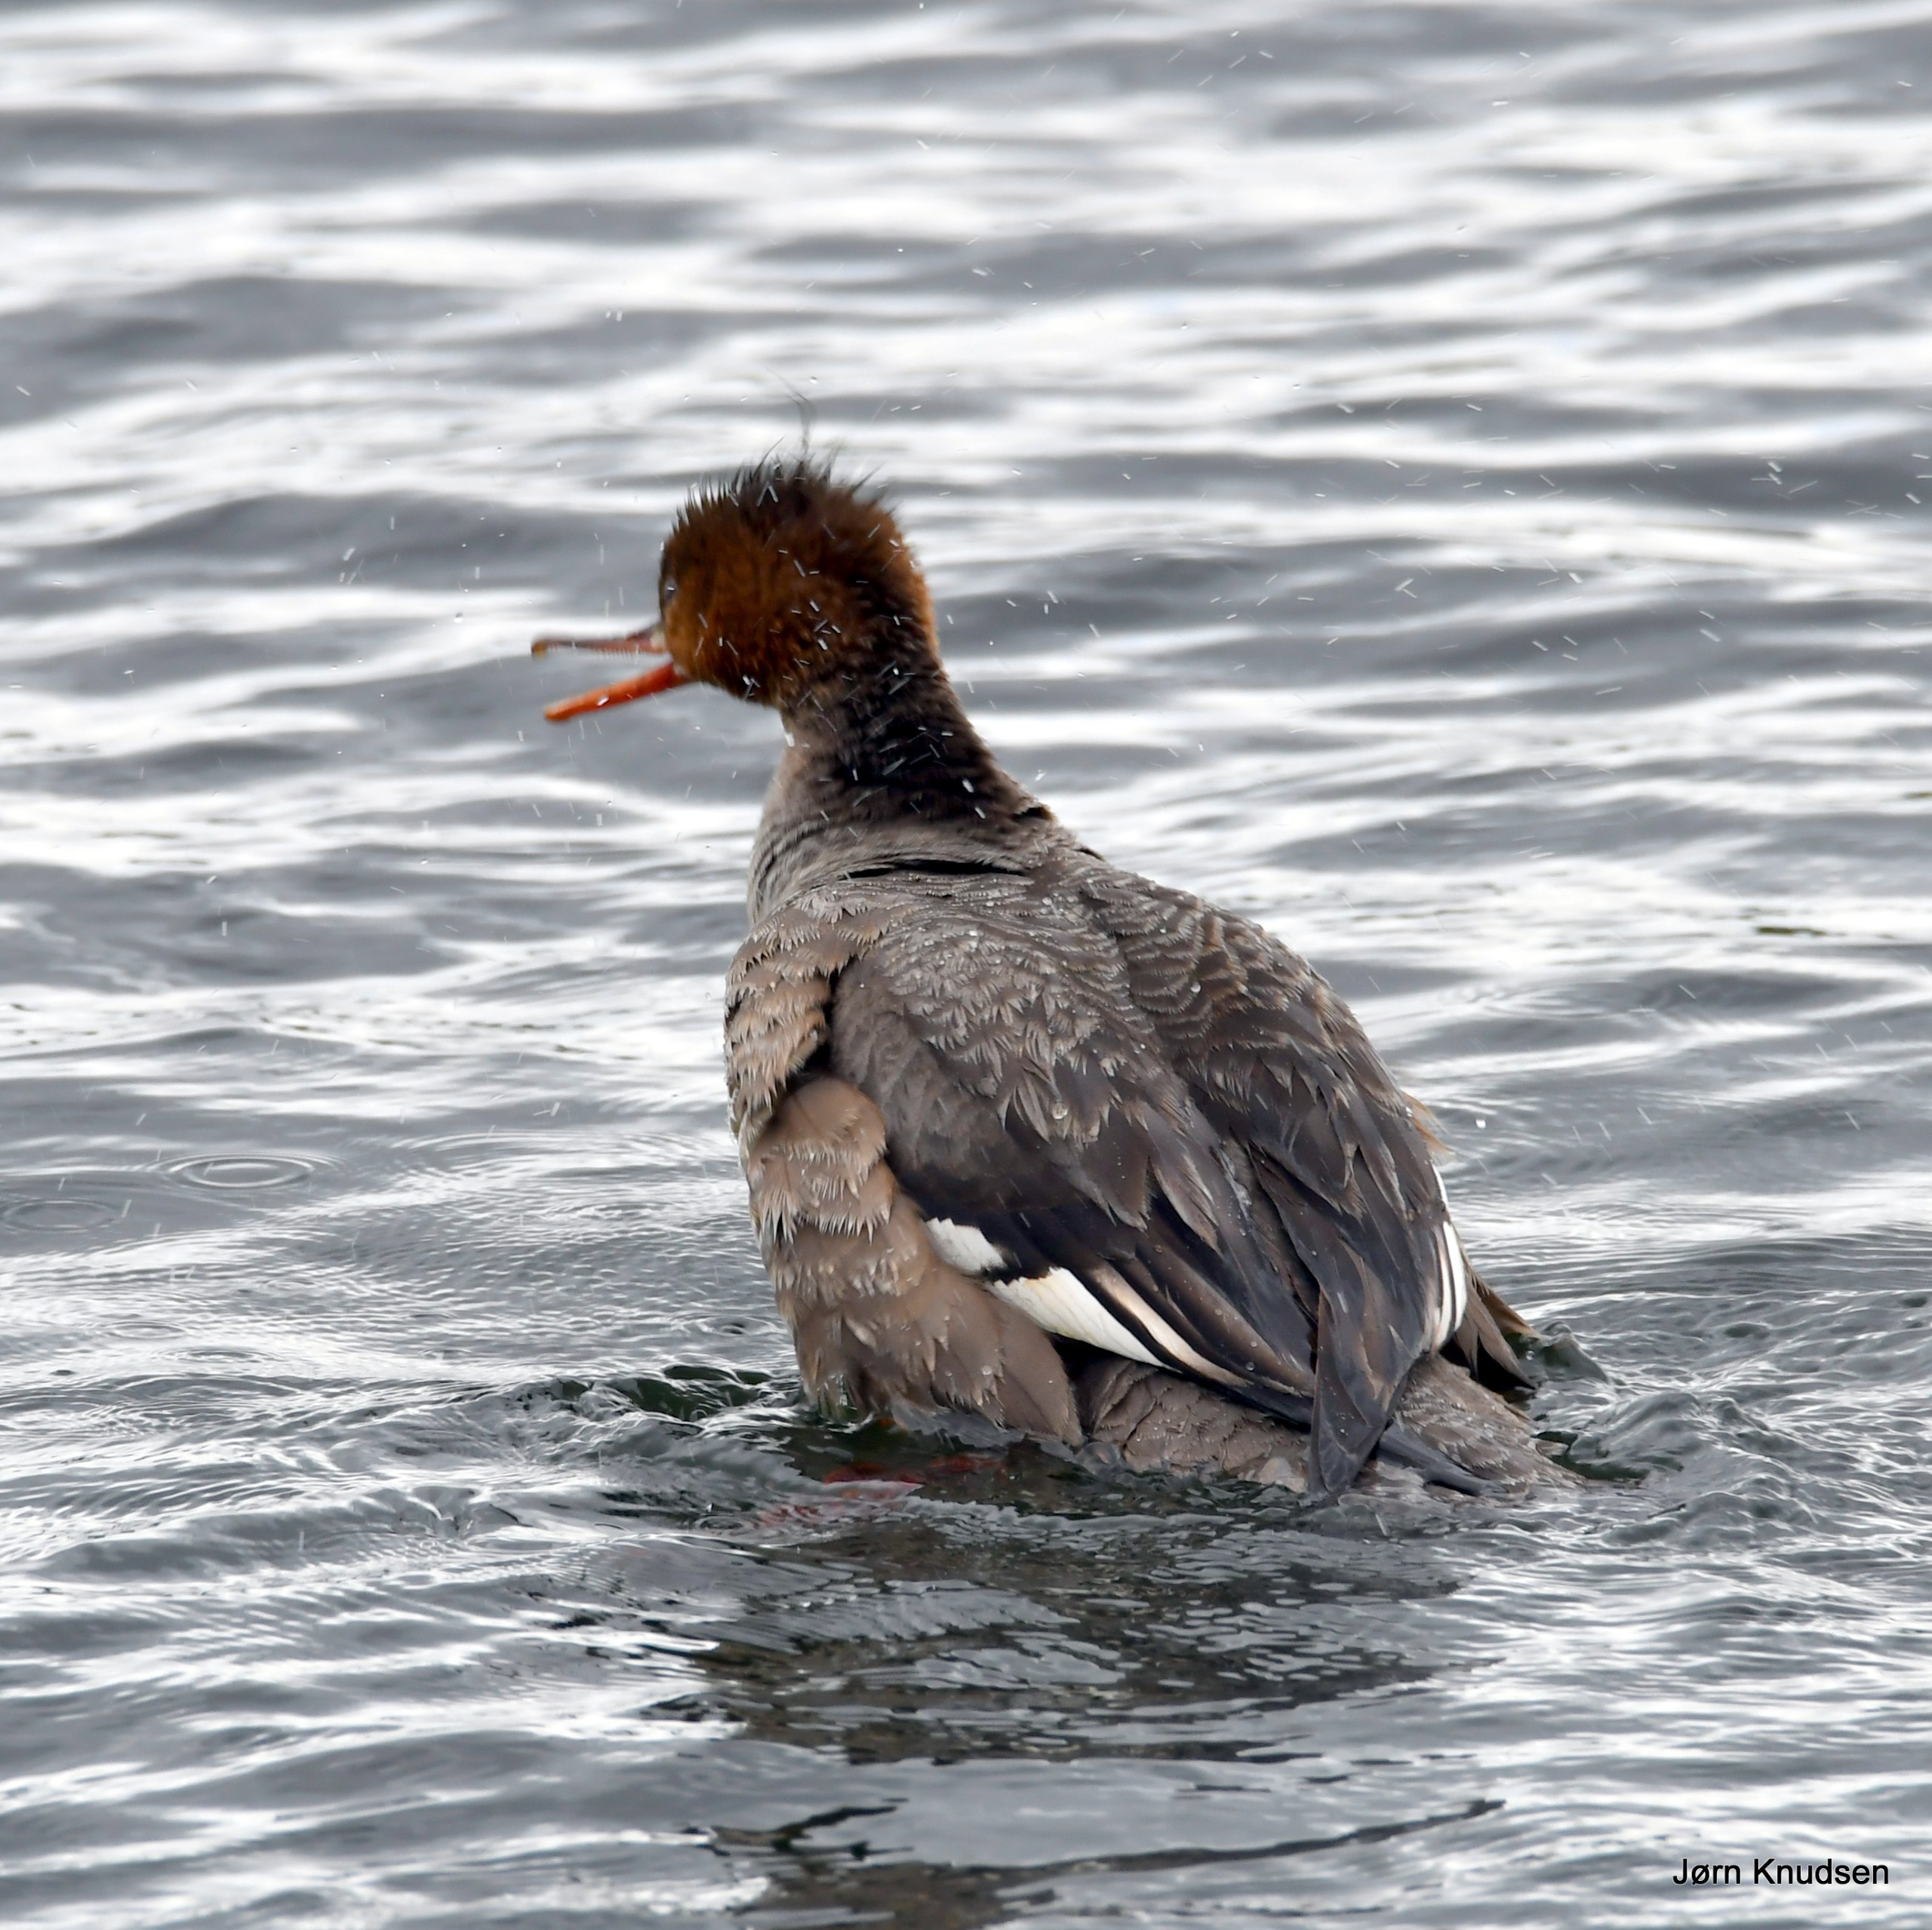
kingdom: Animalia
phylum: Chordata
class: Aves
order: Anseriformes
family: Anatidae
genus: Mergus
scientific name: Mergus serrator
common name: Toppet skallesluger
